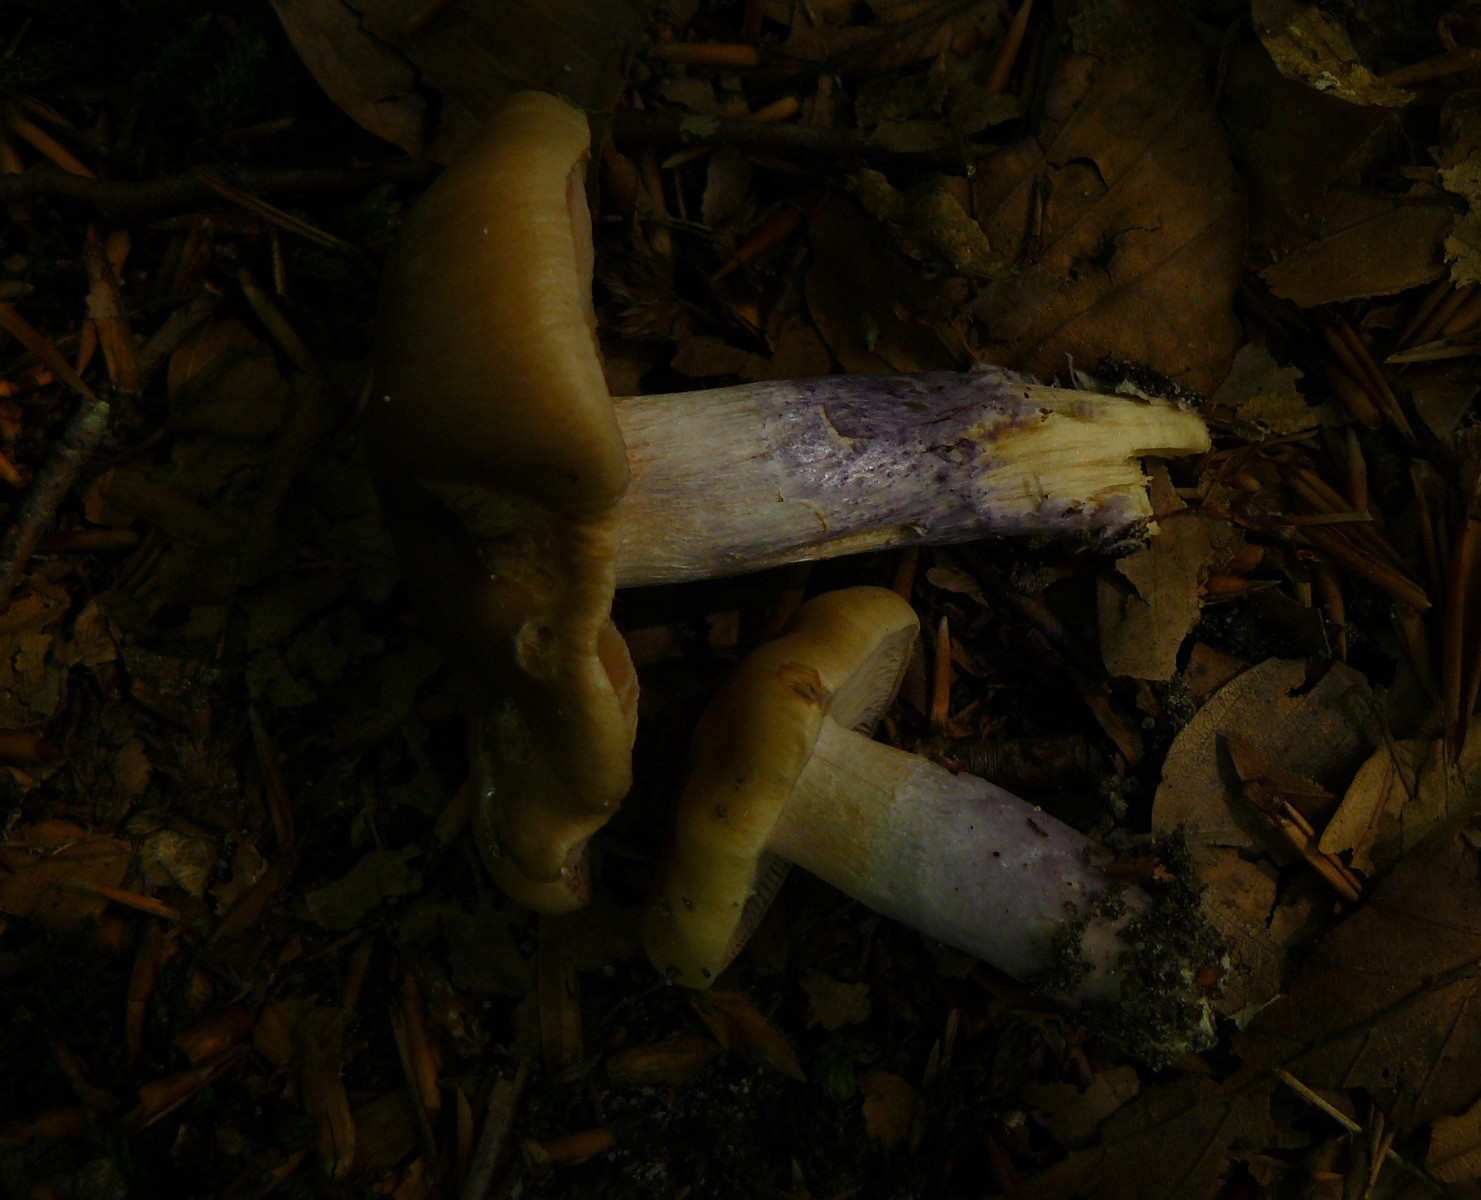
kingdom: Fungi
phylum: Basidiomycota
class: Agaricomycetes
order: Agaricales
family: Cortinariaceae
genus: Cortinarius
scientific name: Cortinarius elatior
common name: høj slørhat
